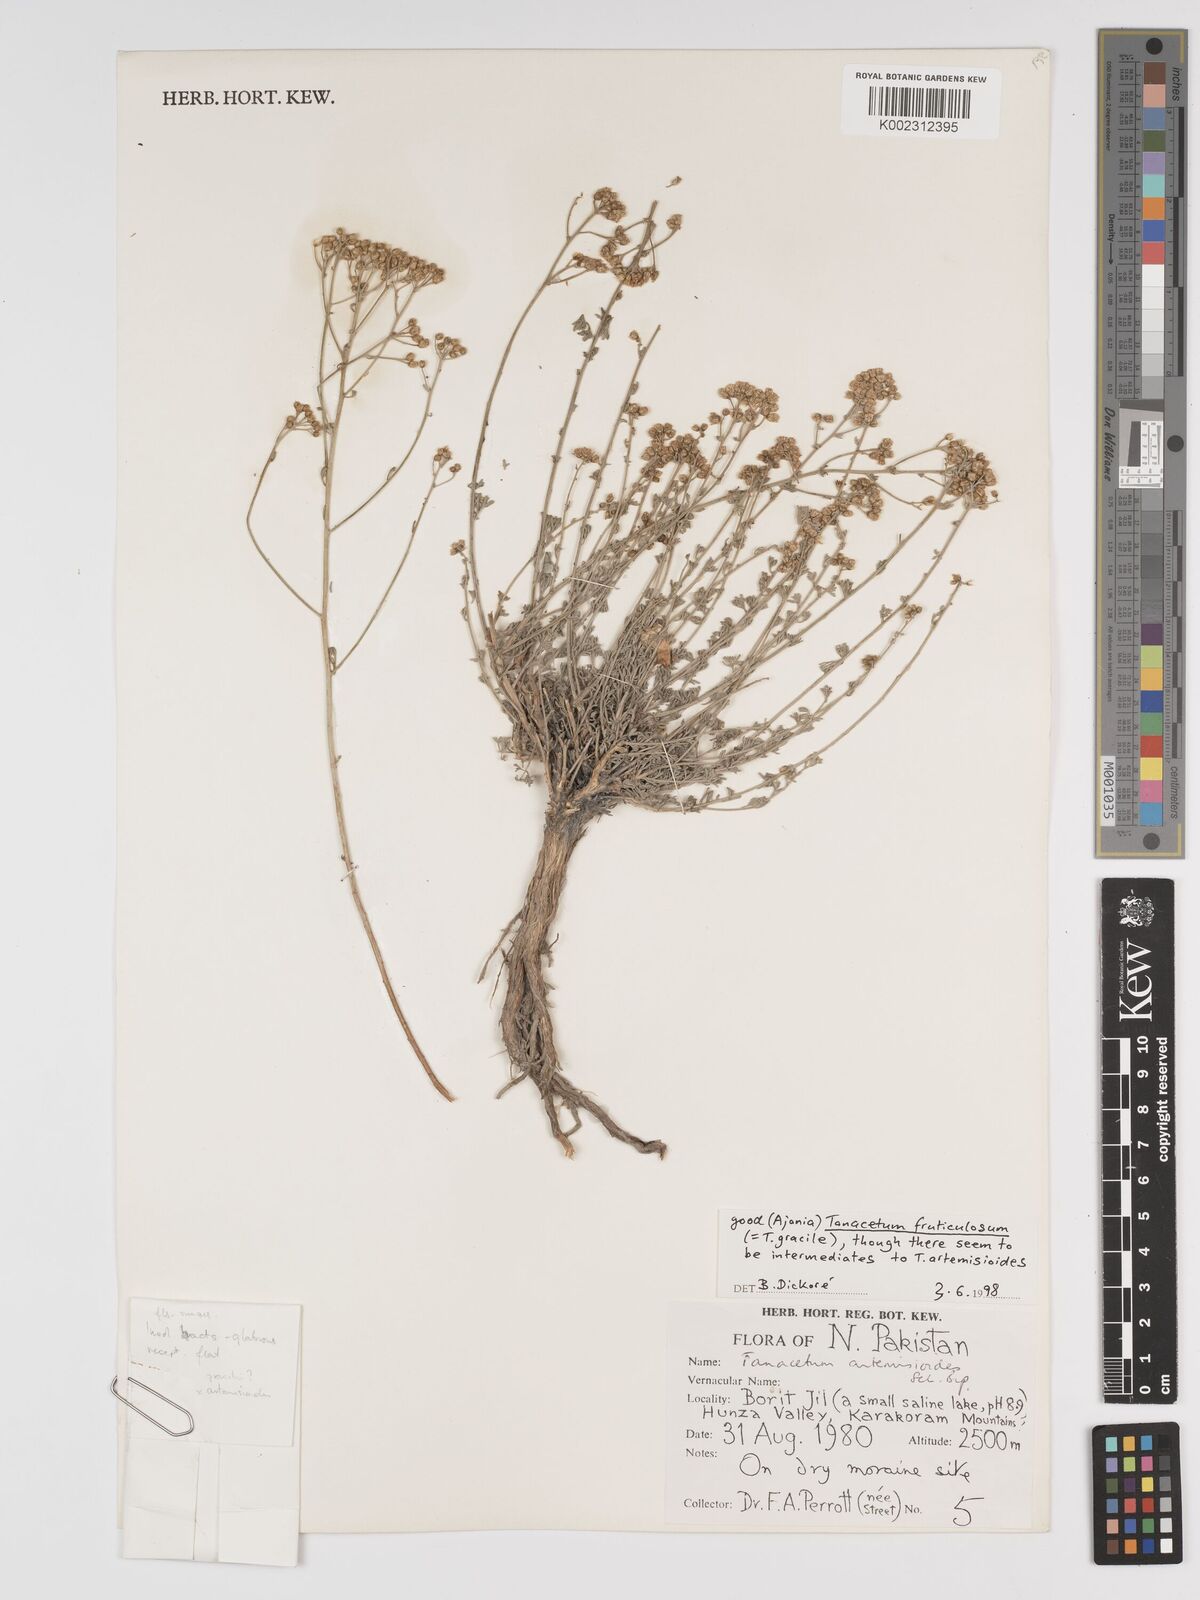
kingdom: Plantae
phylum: Tracheophyta
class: Magnoliopsida
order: Asterales
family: Asteraceae
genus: Tanacetum
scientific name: Tanacetum artemisioides
